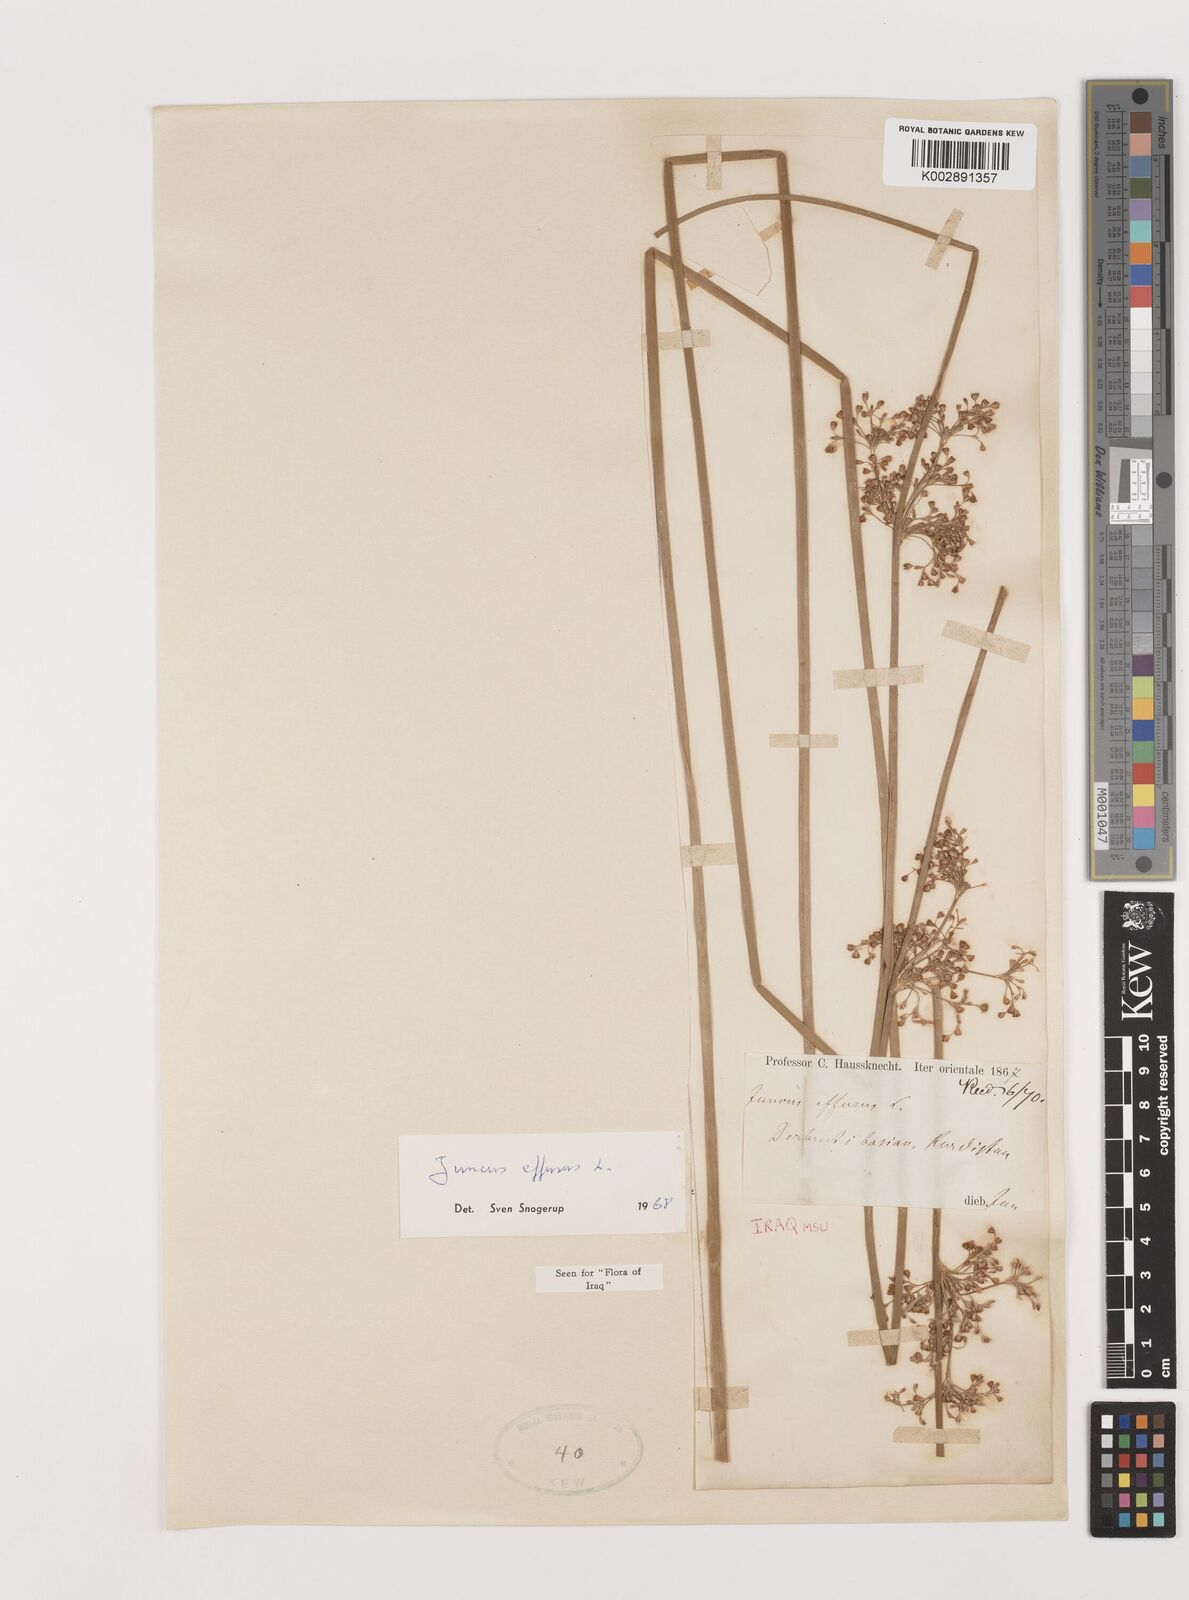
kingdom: Plantae
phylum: Tracheophyta
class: Liliopsida
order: Poales
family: Juncaceae
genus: Juncus
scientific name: Juncus effusus
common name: Soft rush
